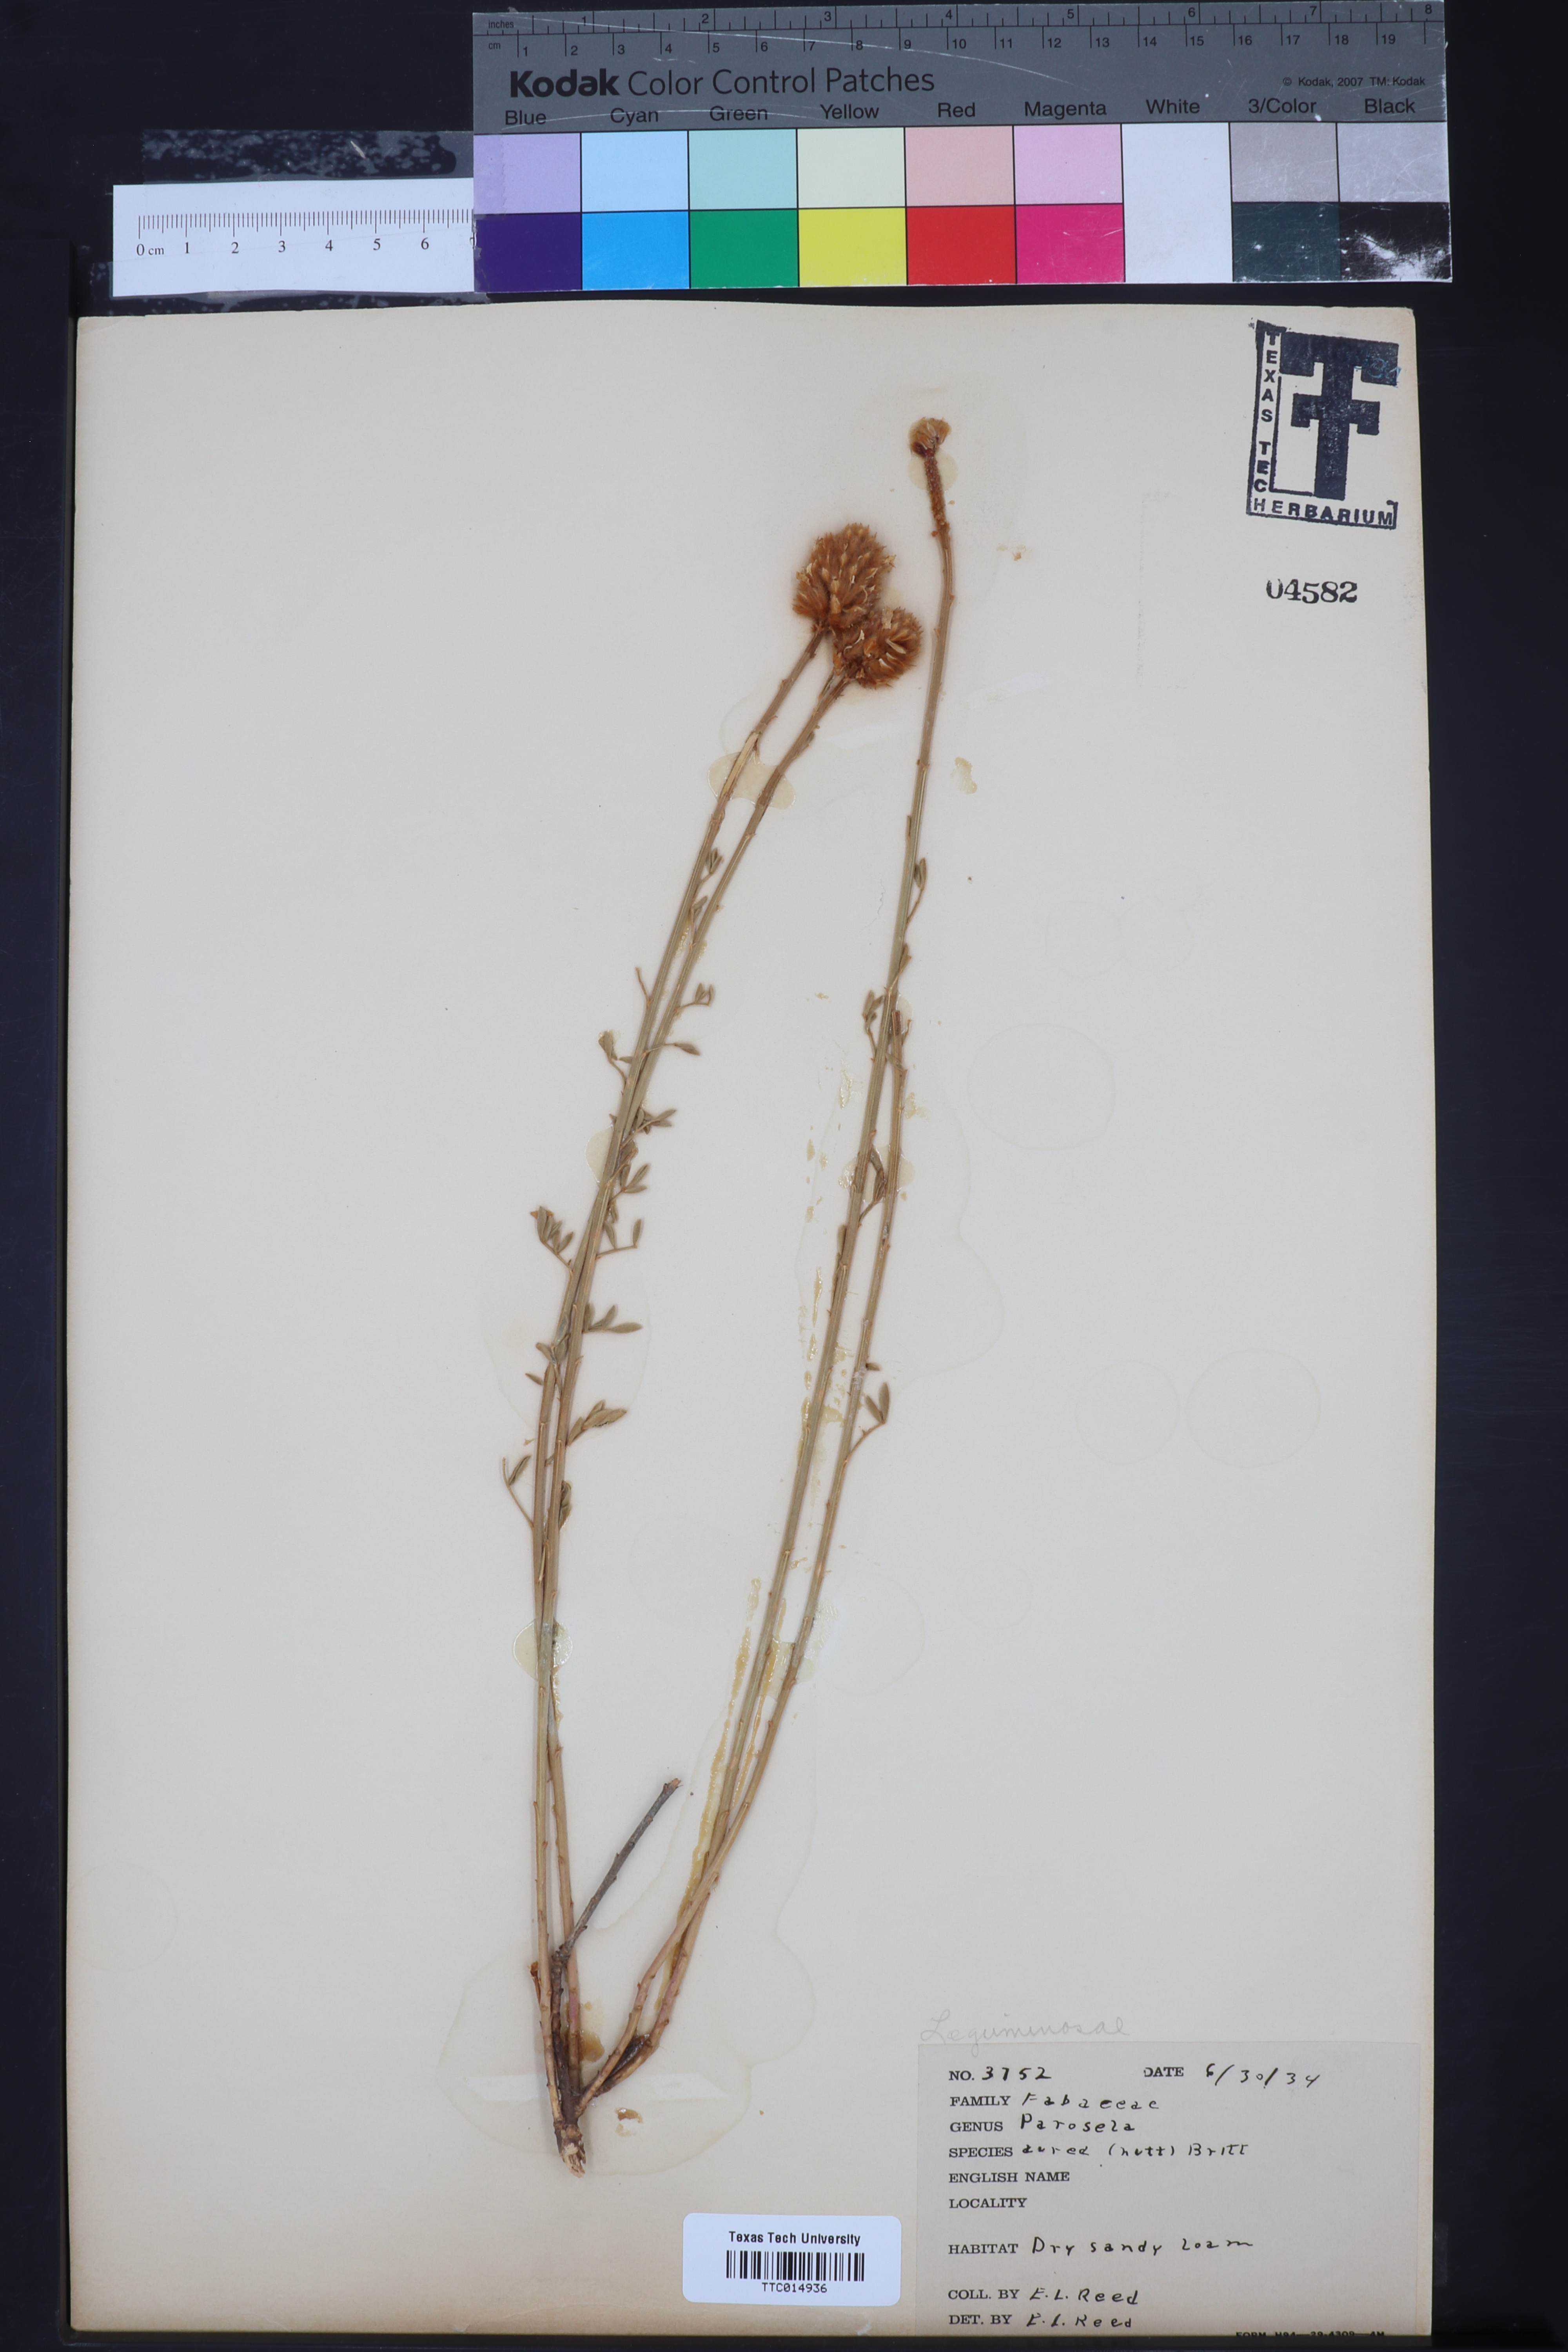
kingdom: Plantae
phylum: Tracheophyta
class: Magnoliopsida
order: Fabales
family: Fabaceae
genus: Dalea
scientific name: Dalea aurea
